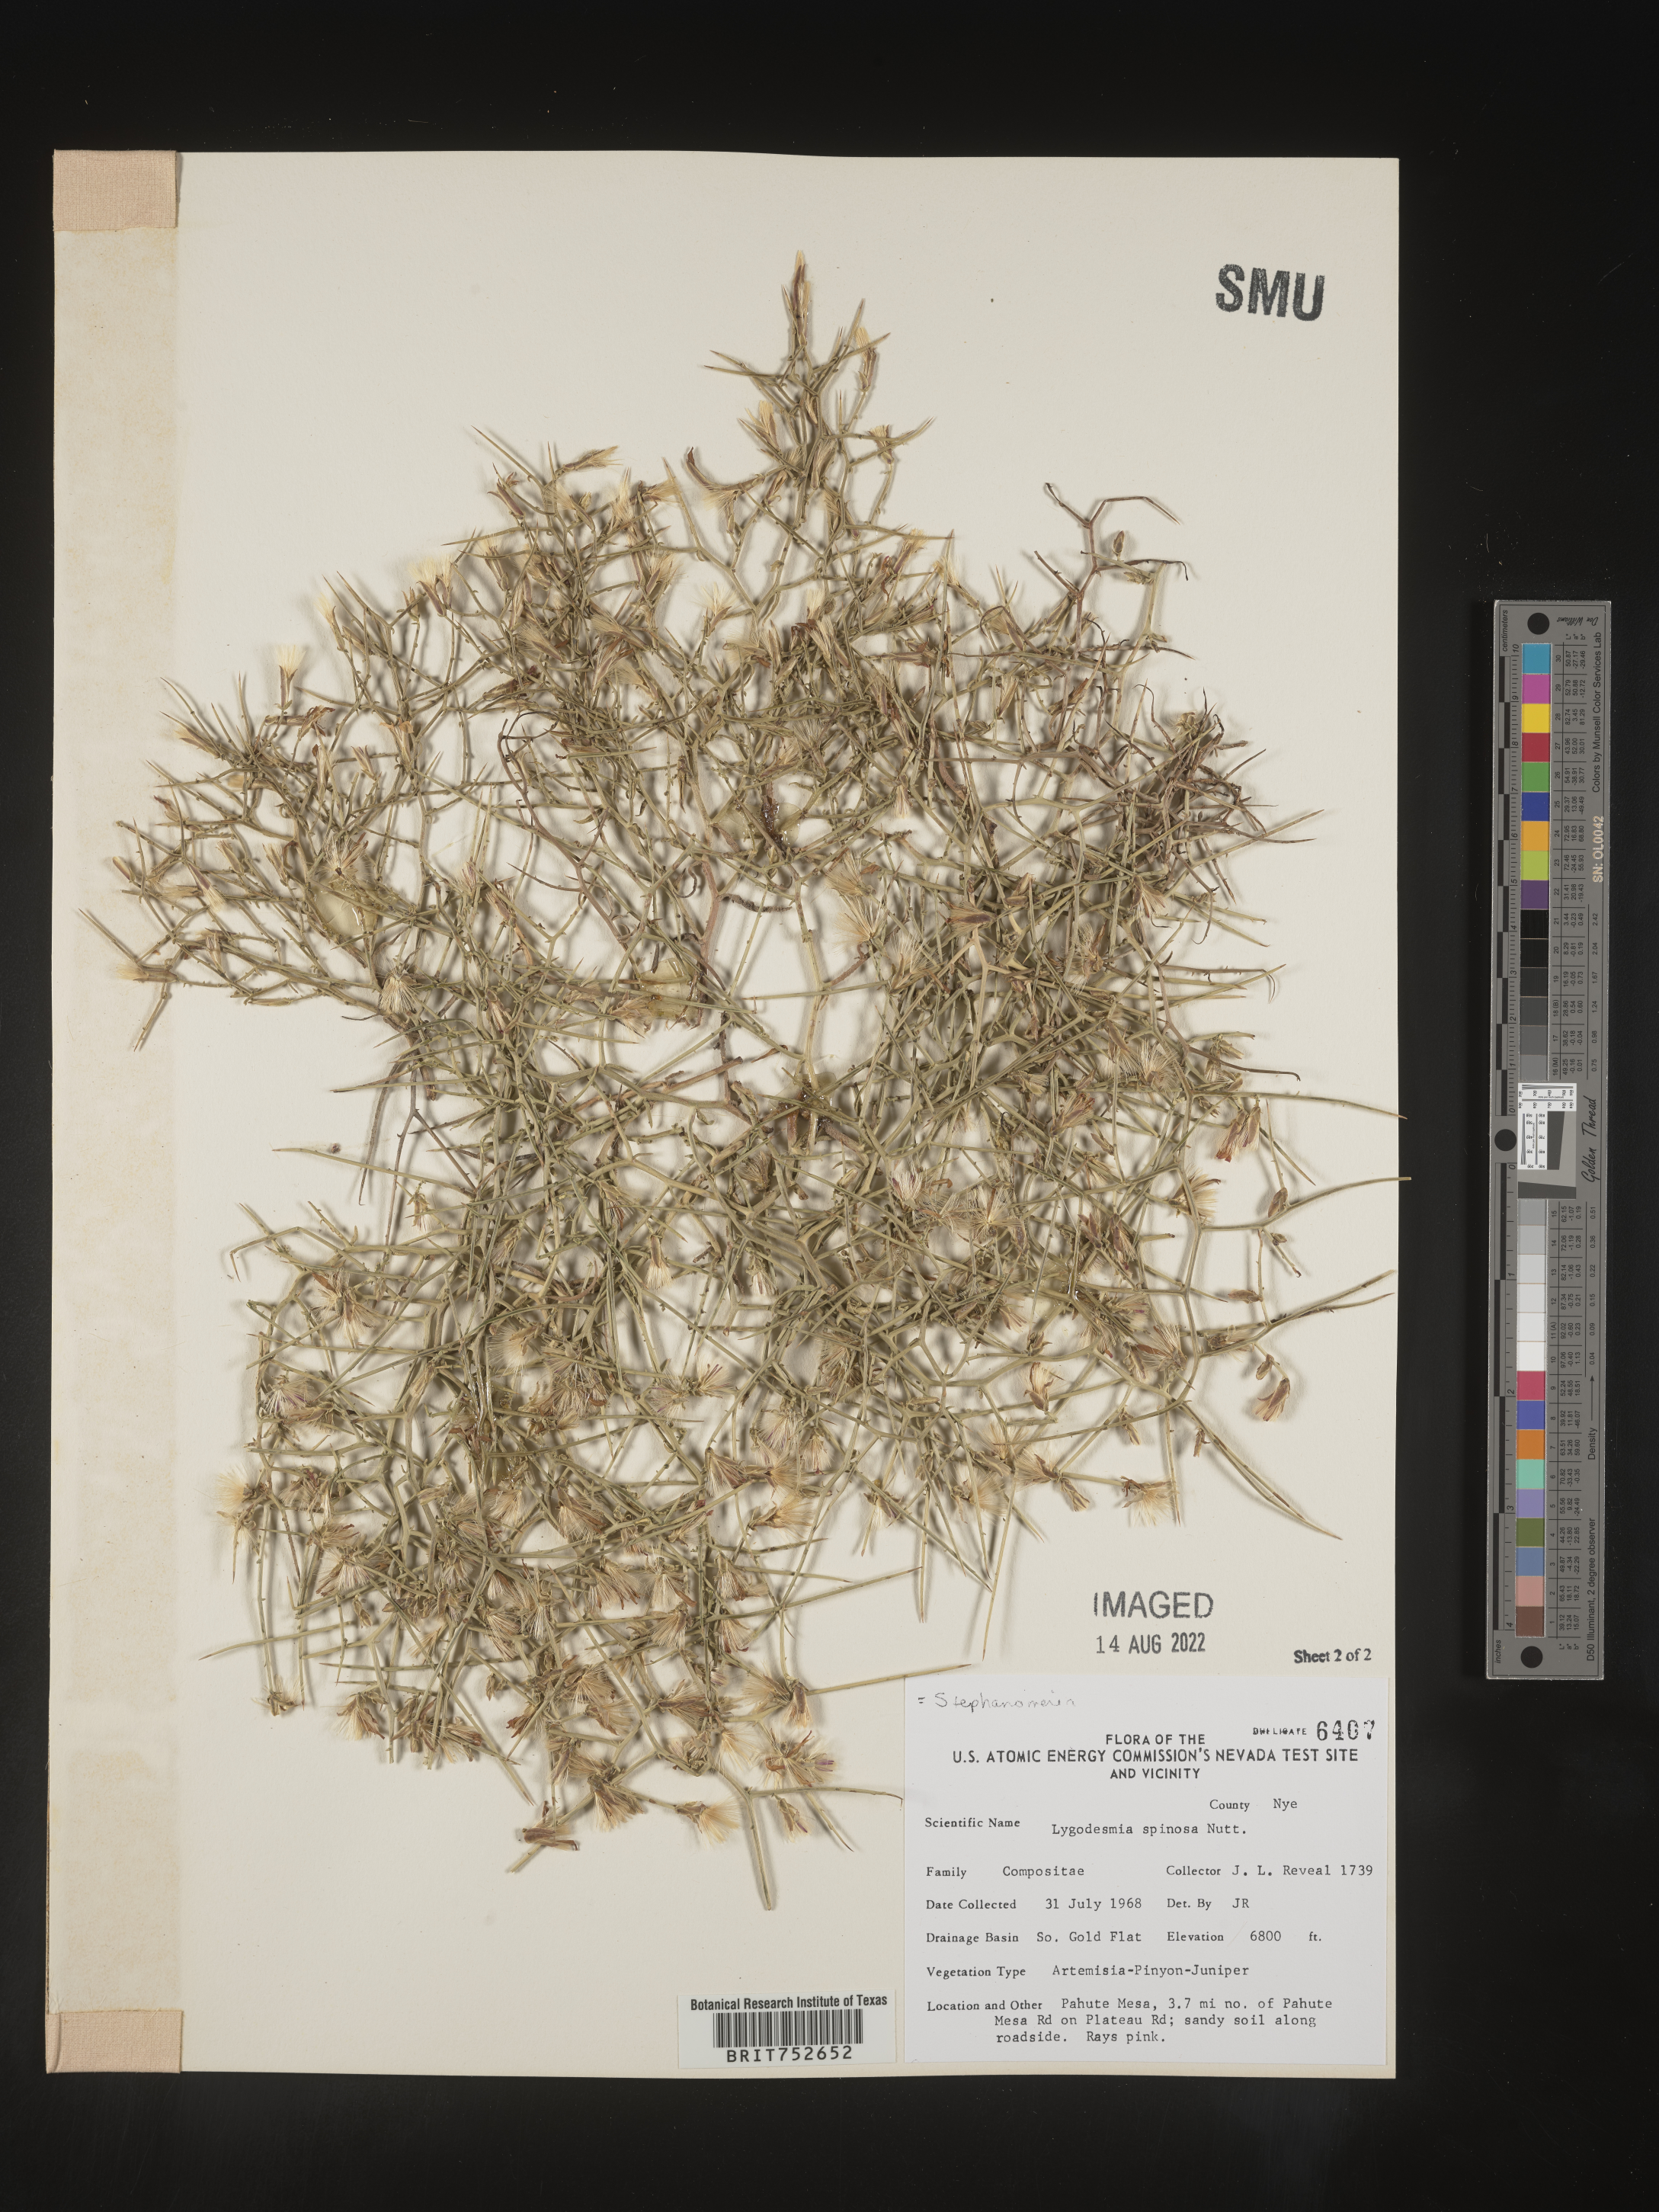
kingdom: Plantae
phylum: Tracheophyta
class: Magnoliopsida
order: Asterales
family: Asteraceae
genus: Pleiacanthus
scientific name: Pleiacanthus spinosus
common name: Thorny skeleton-weed
